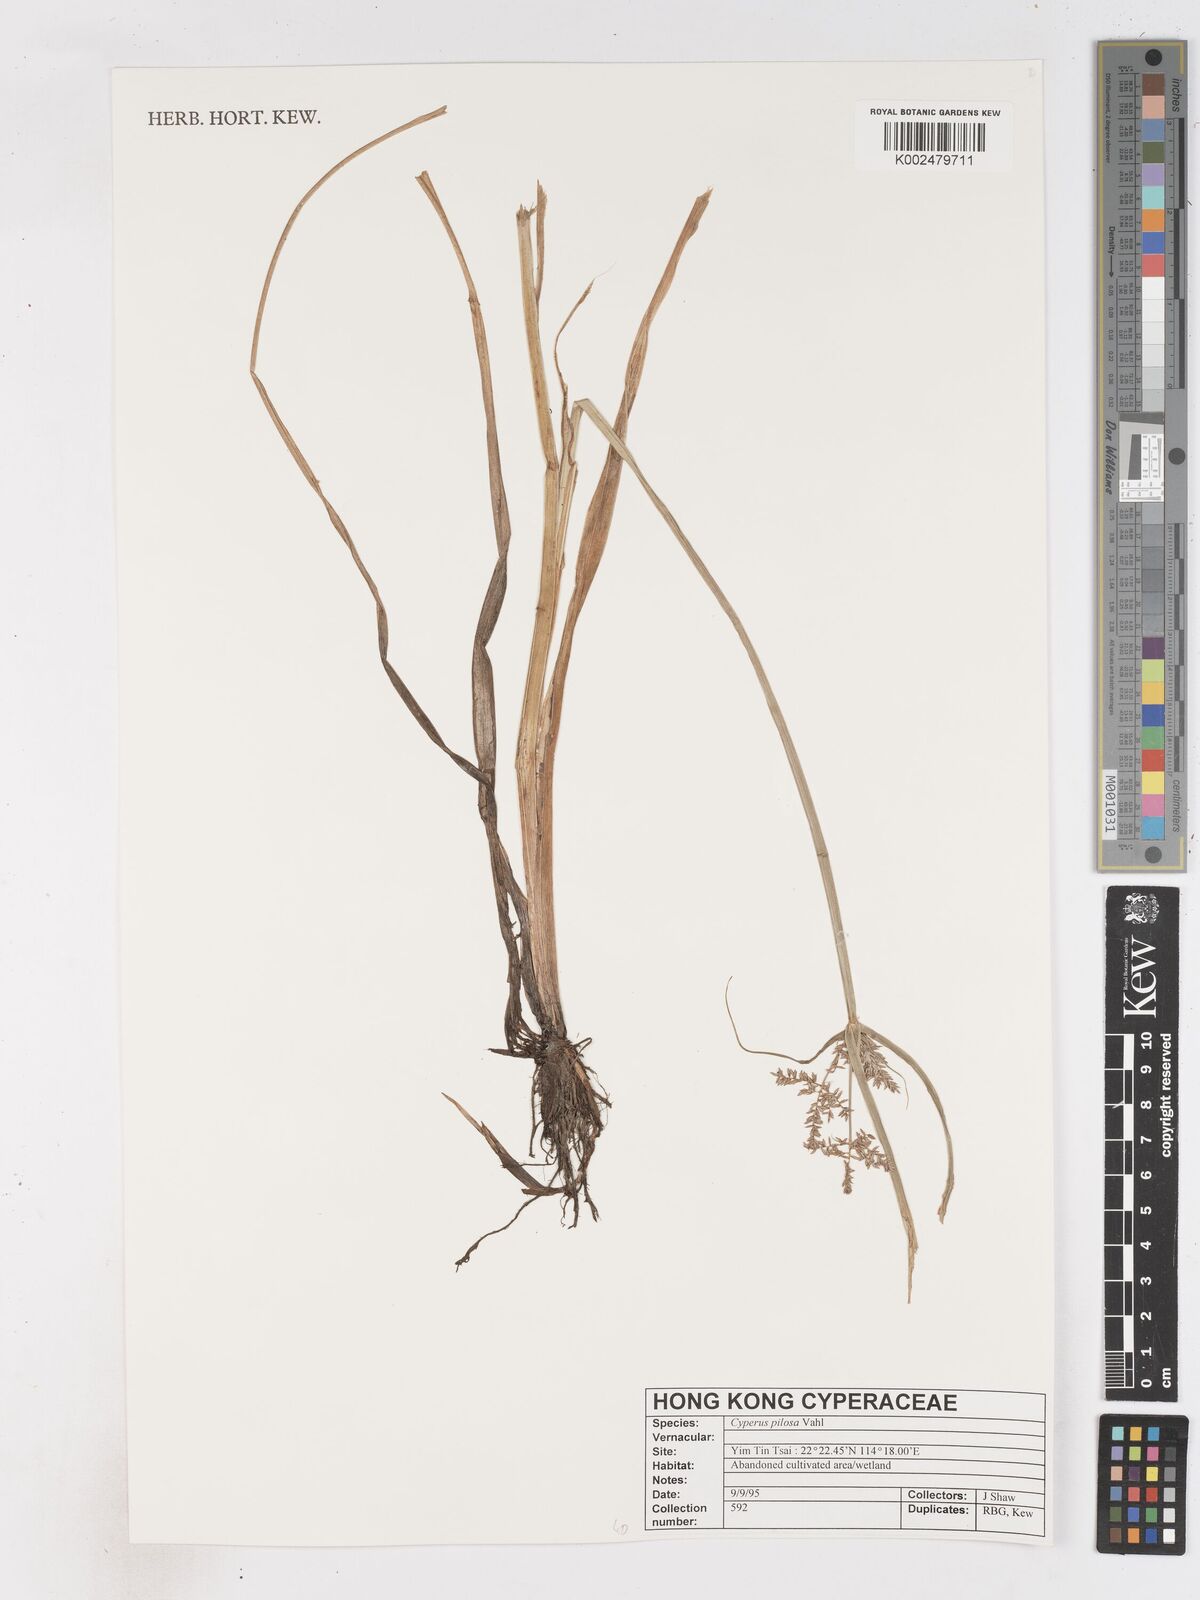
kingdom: Plantae
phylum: Tracheophyta
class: Liliopsida
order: Poales
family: Cyperaceae
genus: Cyperus
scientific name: Cyperus pilosus
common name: Fuzzy flatsedge
